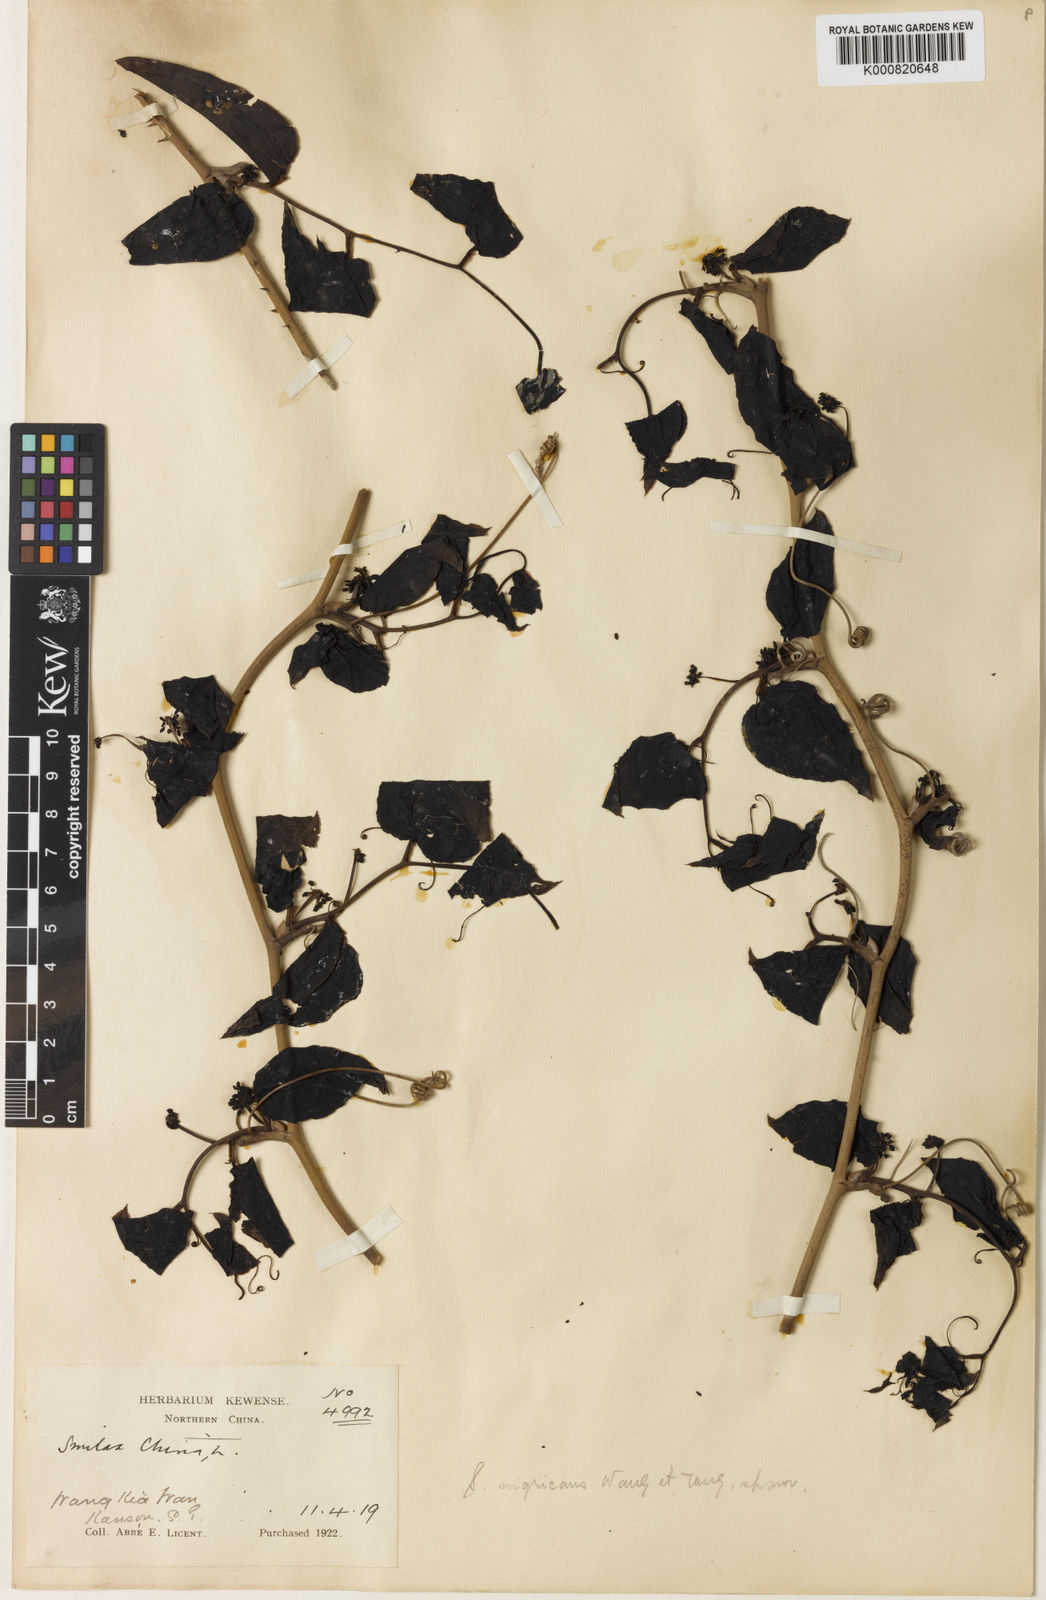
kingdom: Plantae
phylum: Tracheophyta
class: Liliopsida
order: Liliales
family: Smilacaceae
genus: Smilax
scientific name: Smilax
